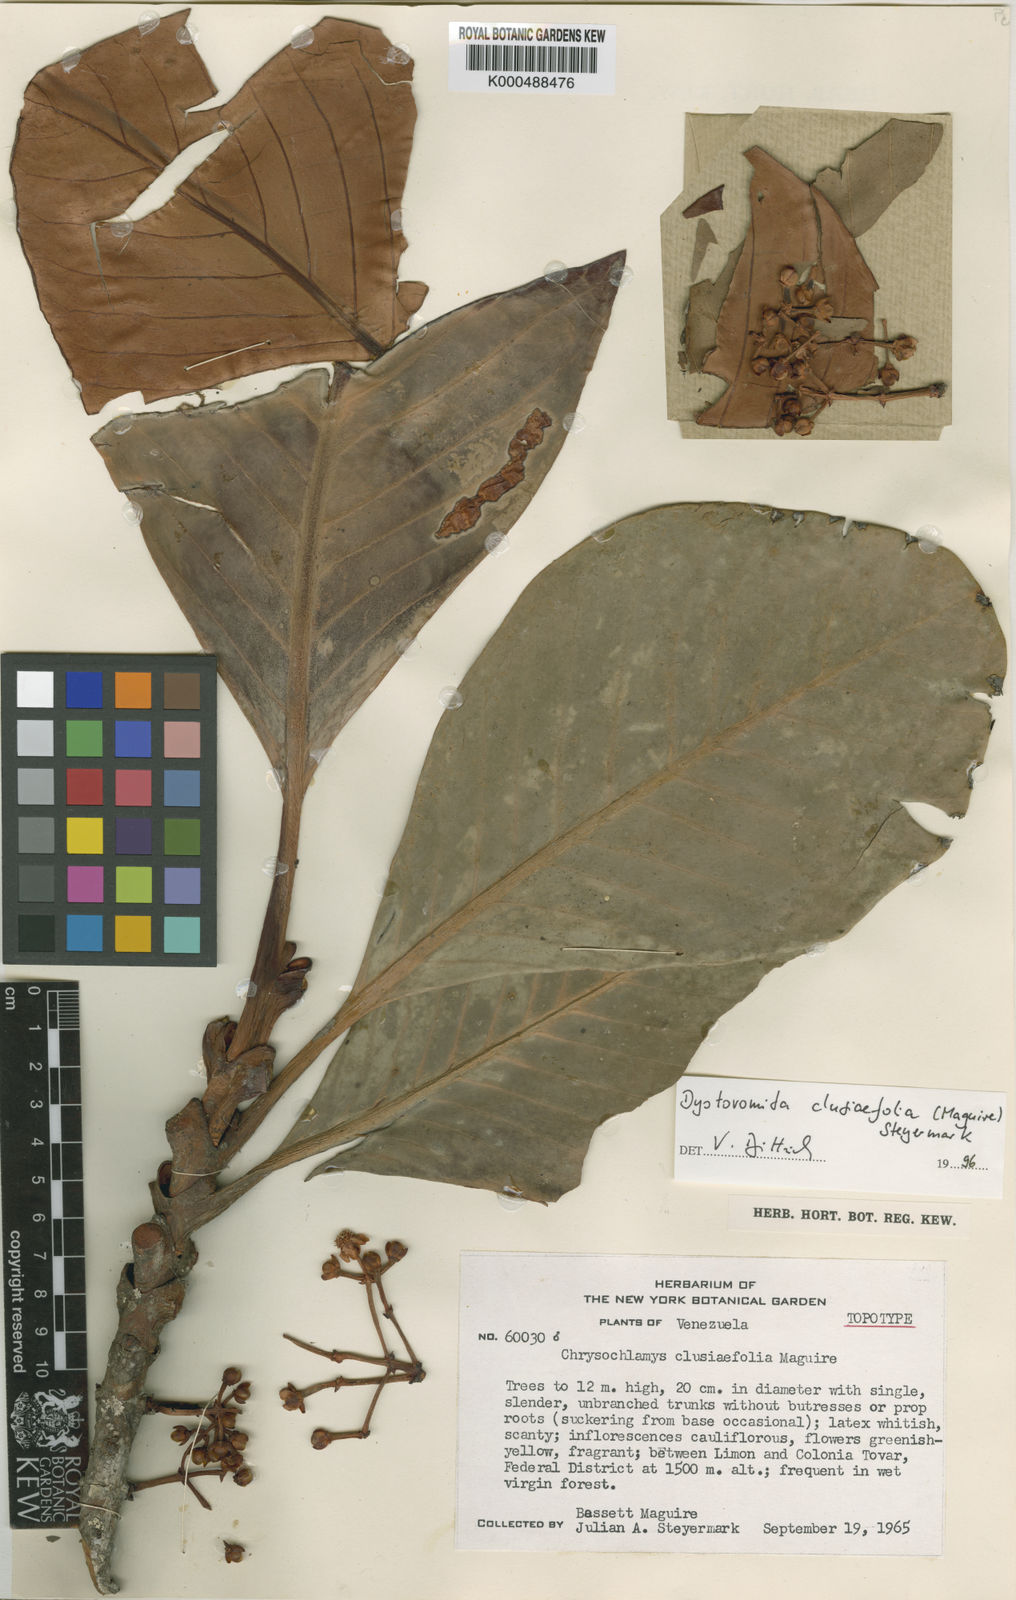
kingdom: Plantae
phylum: Tracheophyta
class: Magnoliopsida
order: Malpighiales
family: Clusiaceae
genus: Dystovomita
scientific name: Dystovomita clusiifolia
